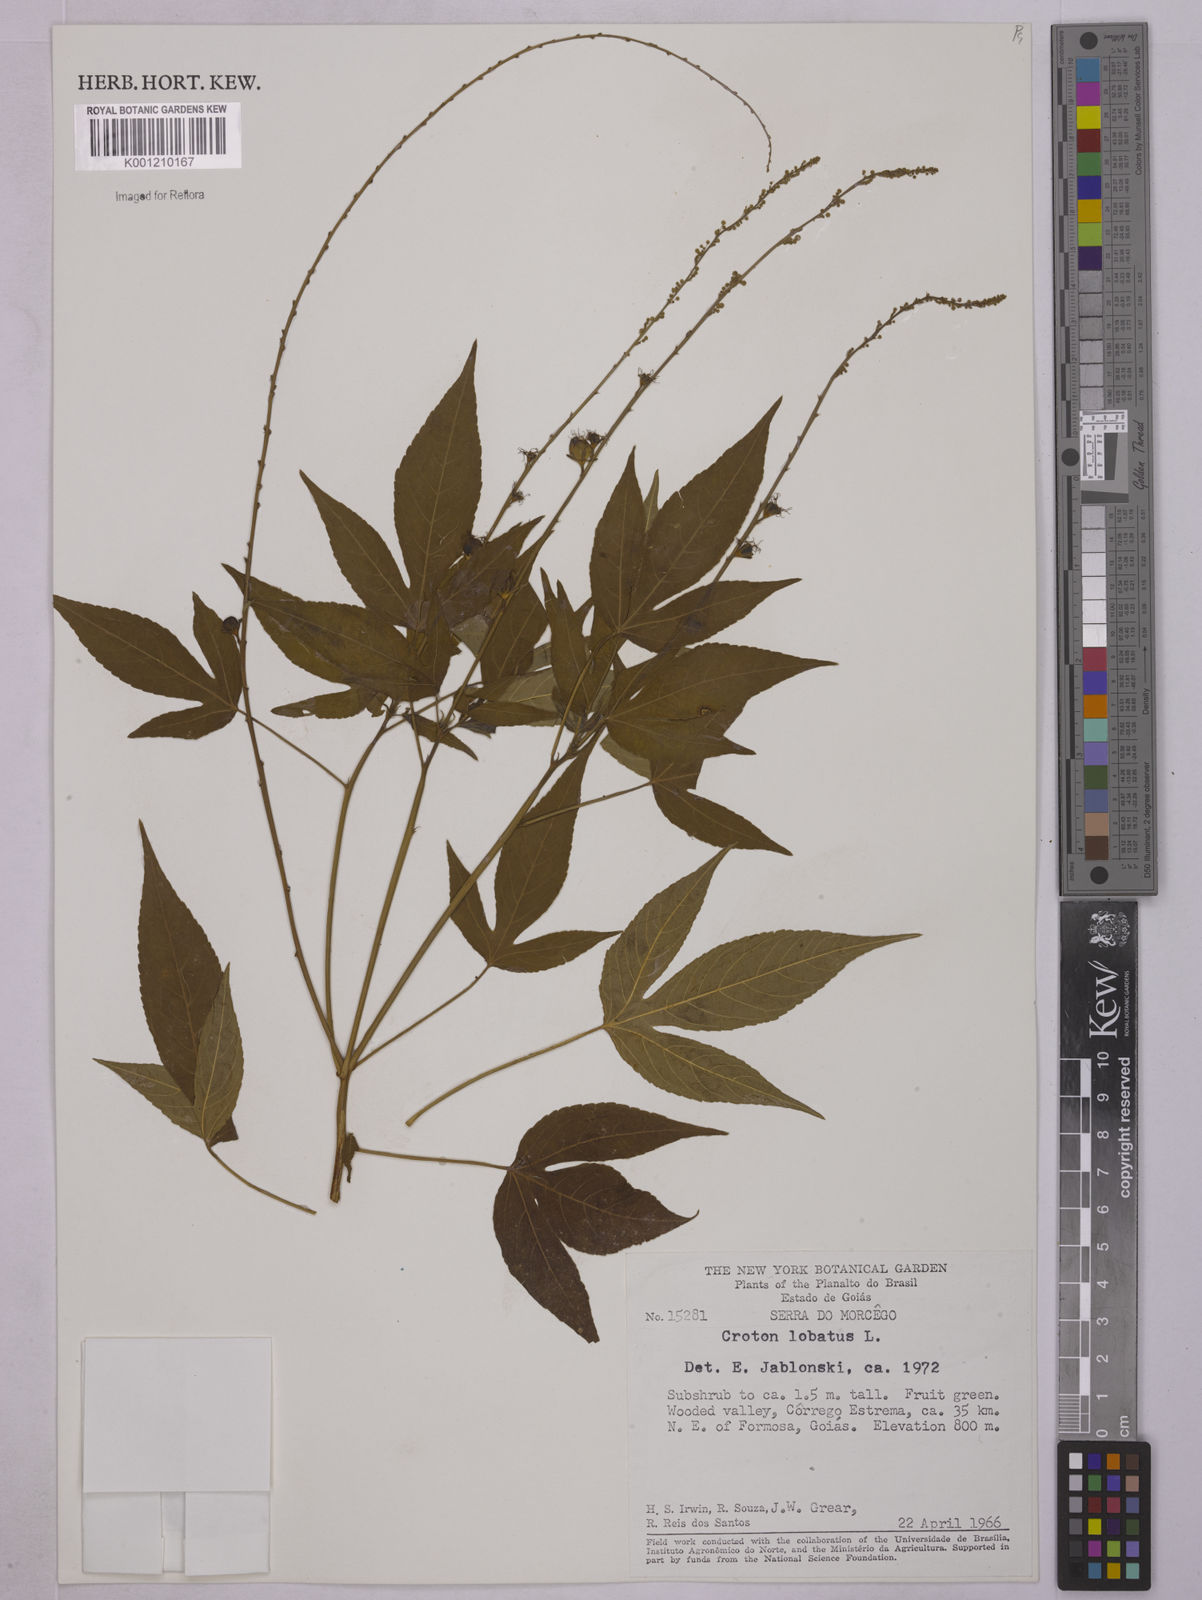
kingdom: Plantae
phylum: Tracheophyta
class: Magnoliopsida
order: Malpighiales
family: Euphorbiaceae
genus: Astraea
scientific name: Astraea lobata
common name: Lobed croton
